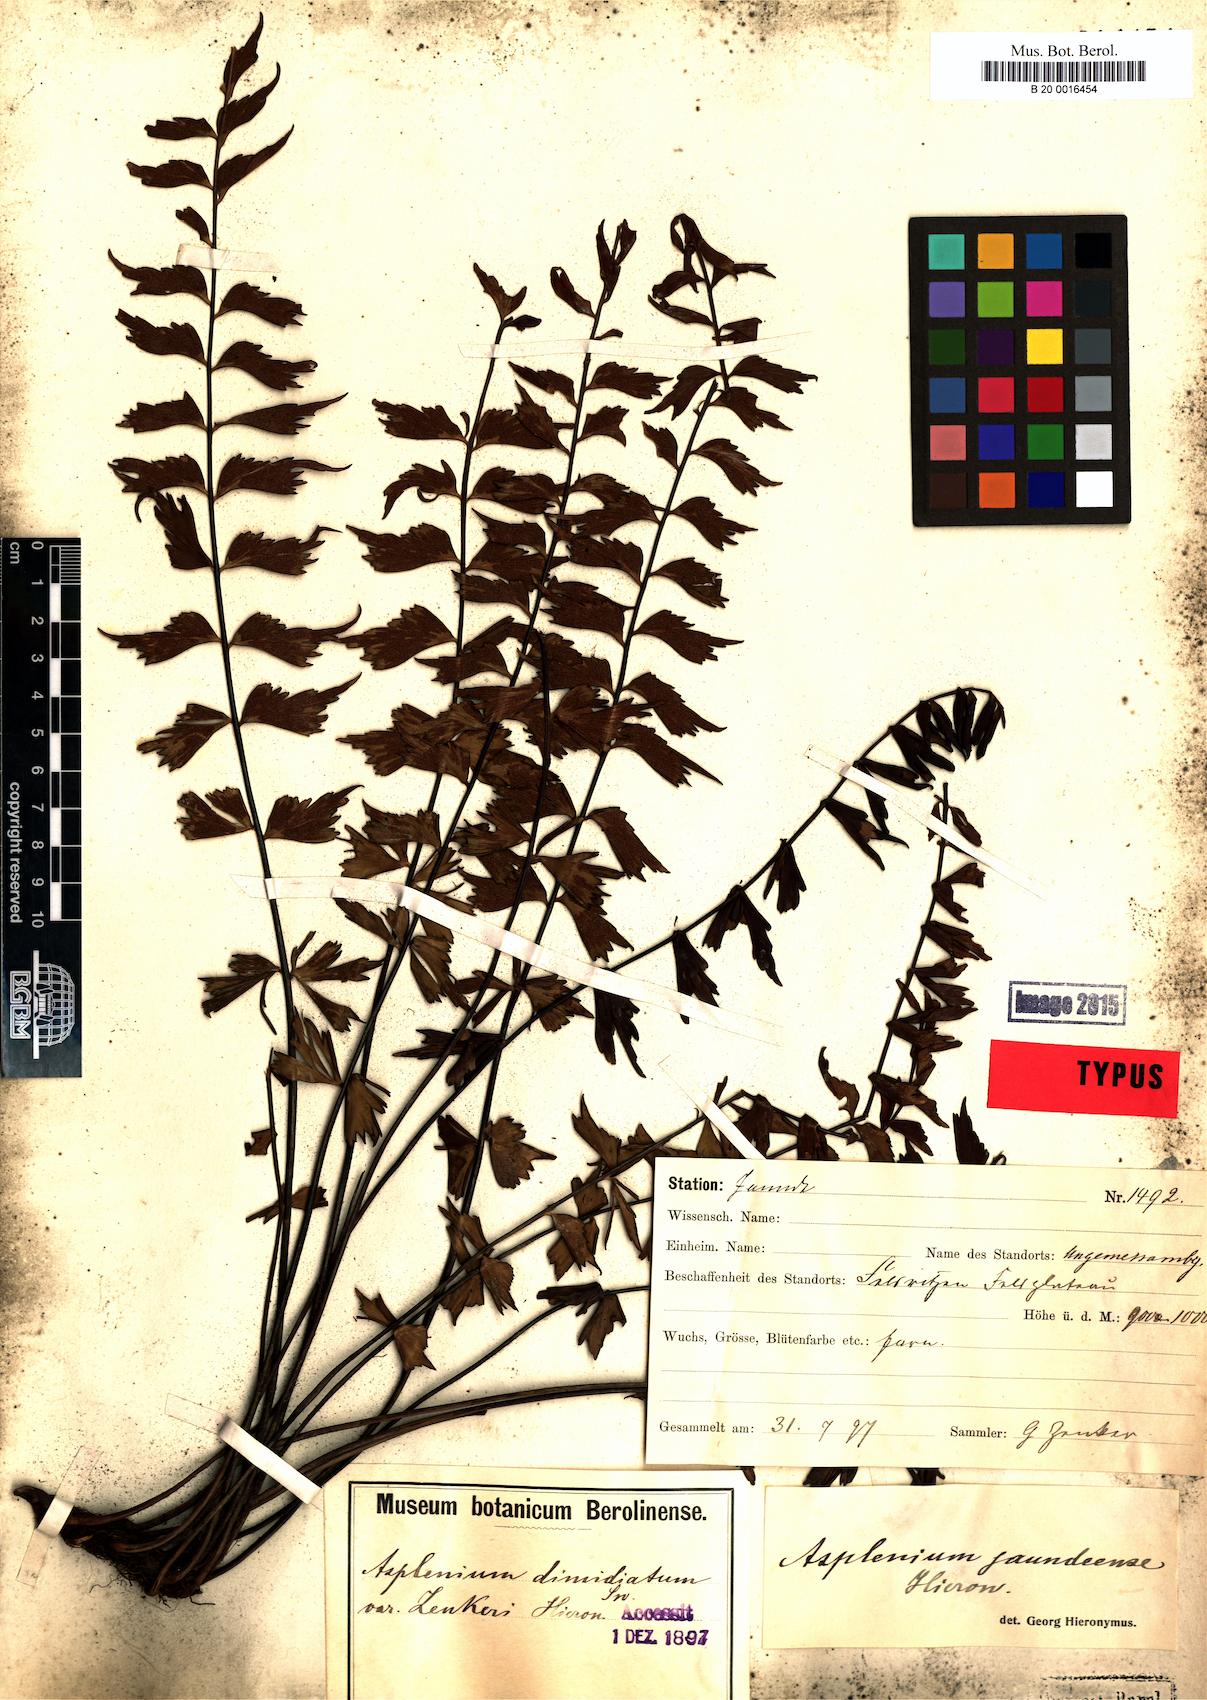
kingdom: Plantae
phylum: Tracheophyta
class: Polypodiopsida
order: Polypodiales
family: Aspleniaceae
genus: Asplenium
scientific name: Asplenium jaundeense
